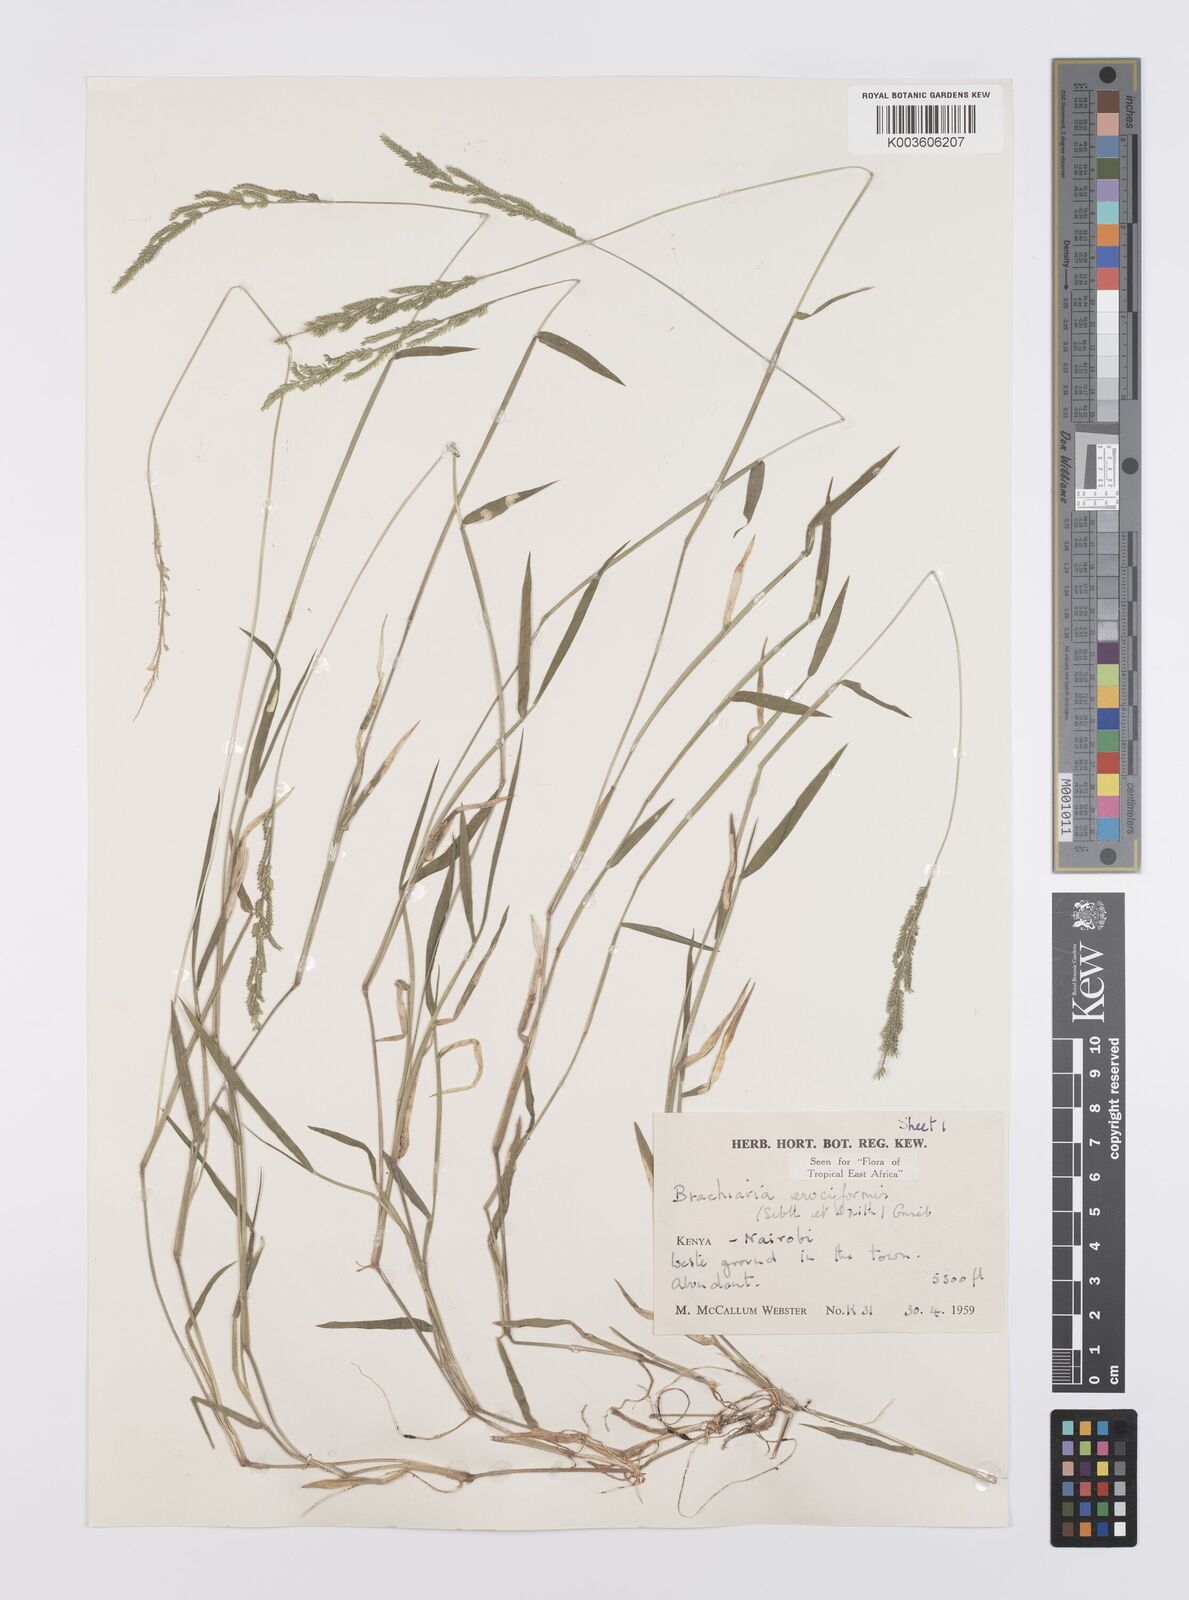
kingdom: Plantae
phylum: Tracheophyta
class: Liliopsida
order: Poales
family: Poaceae
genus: Moorochloa
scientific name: Moorochloa eruciformis
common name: Sweet signalgrass
